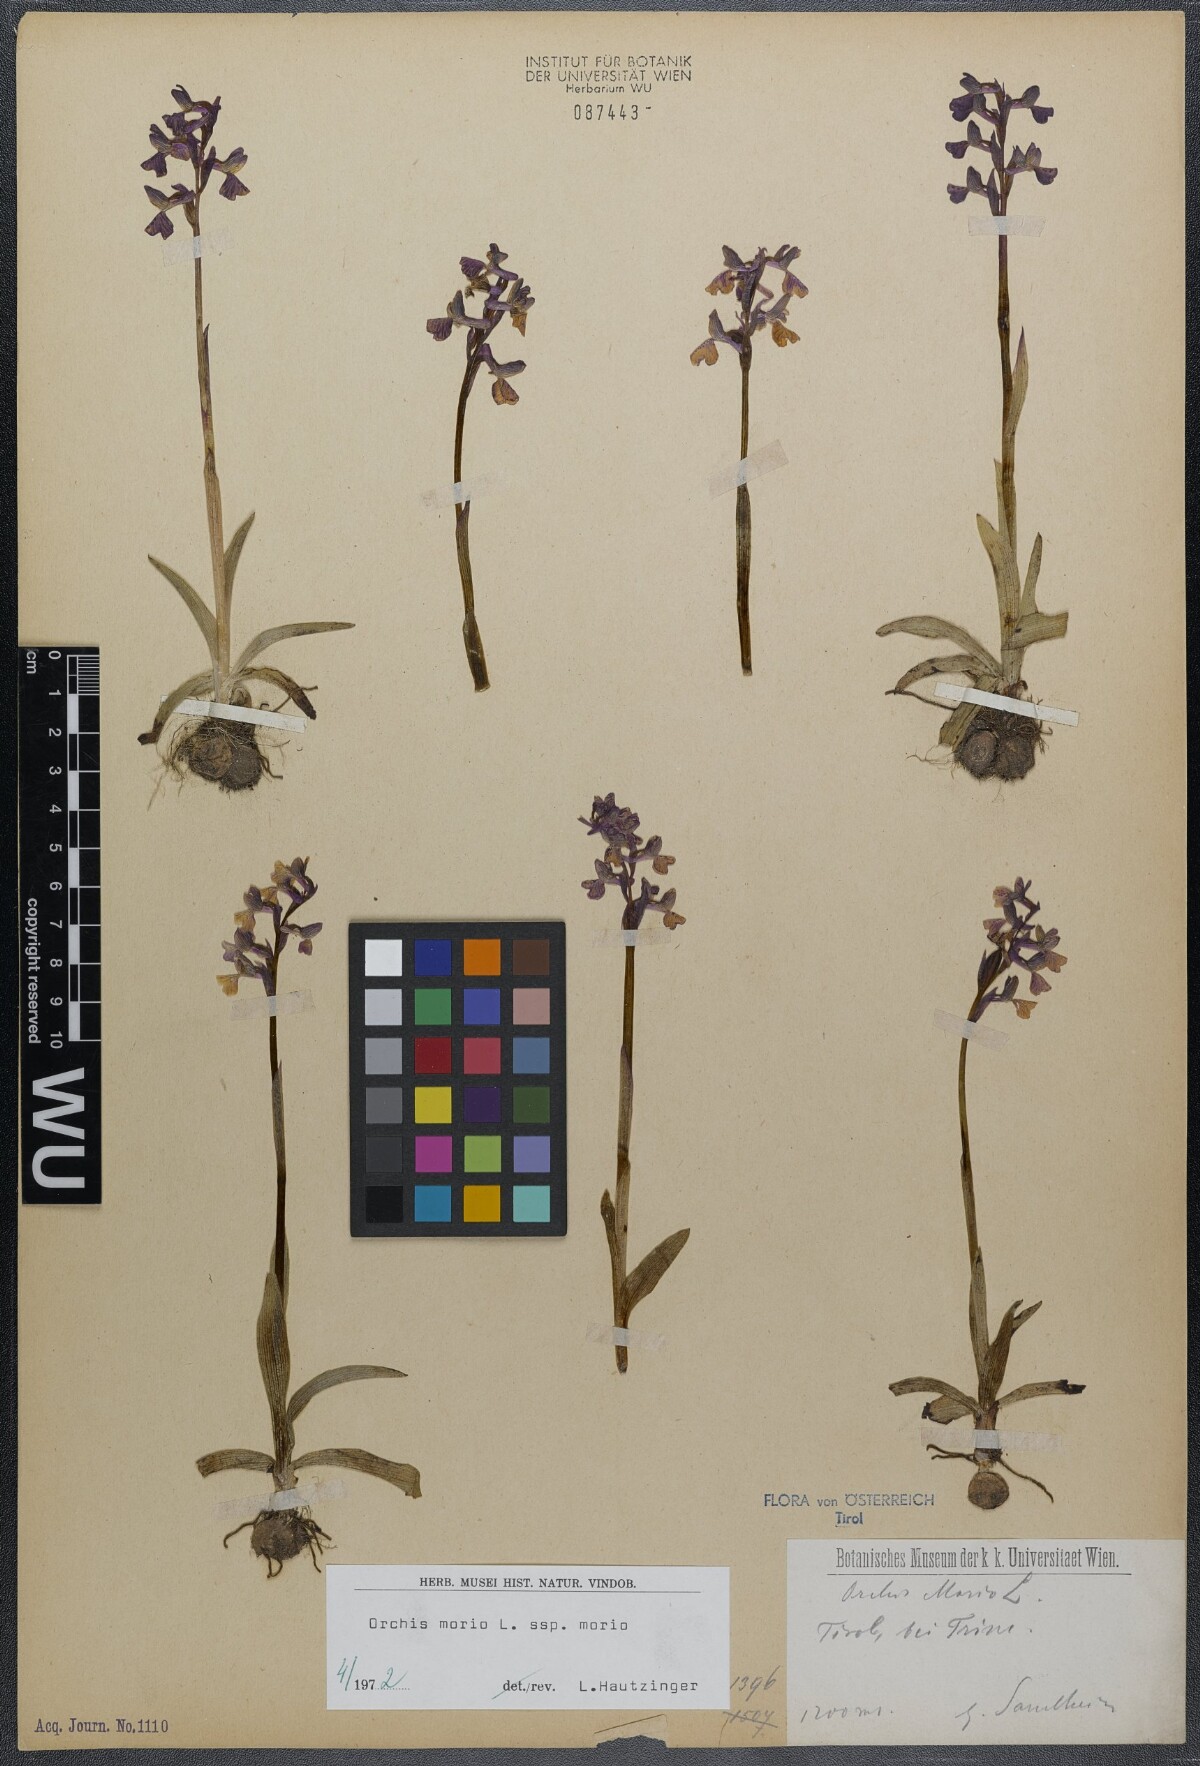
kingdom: Plantae
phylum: Tracheophyta
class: Liliopsida
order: Asparagales
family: Orchidaceae
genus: Anacamptis
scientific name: Anacamptis morio
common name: Green-winged orchid
